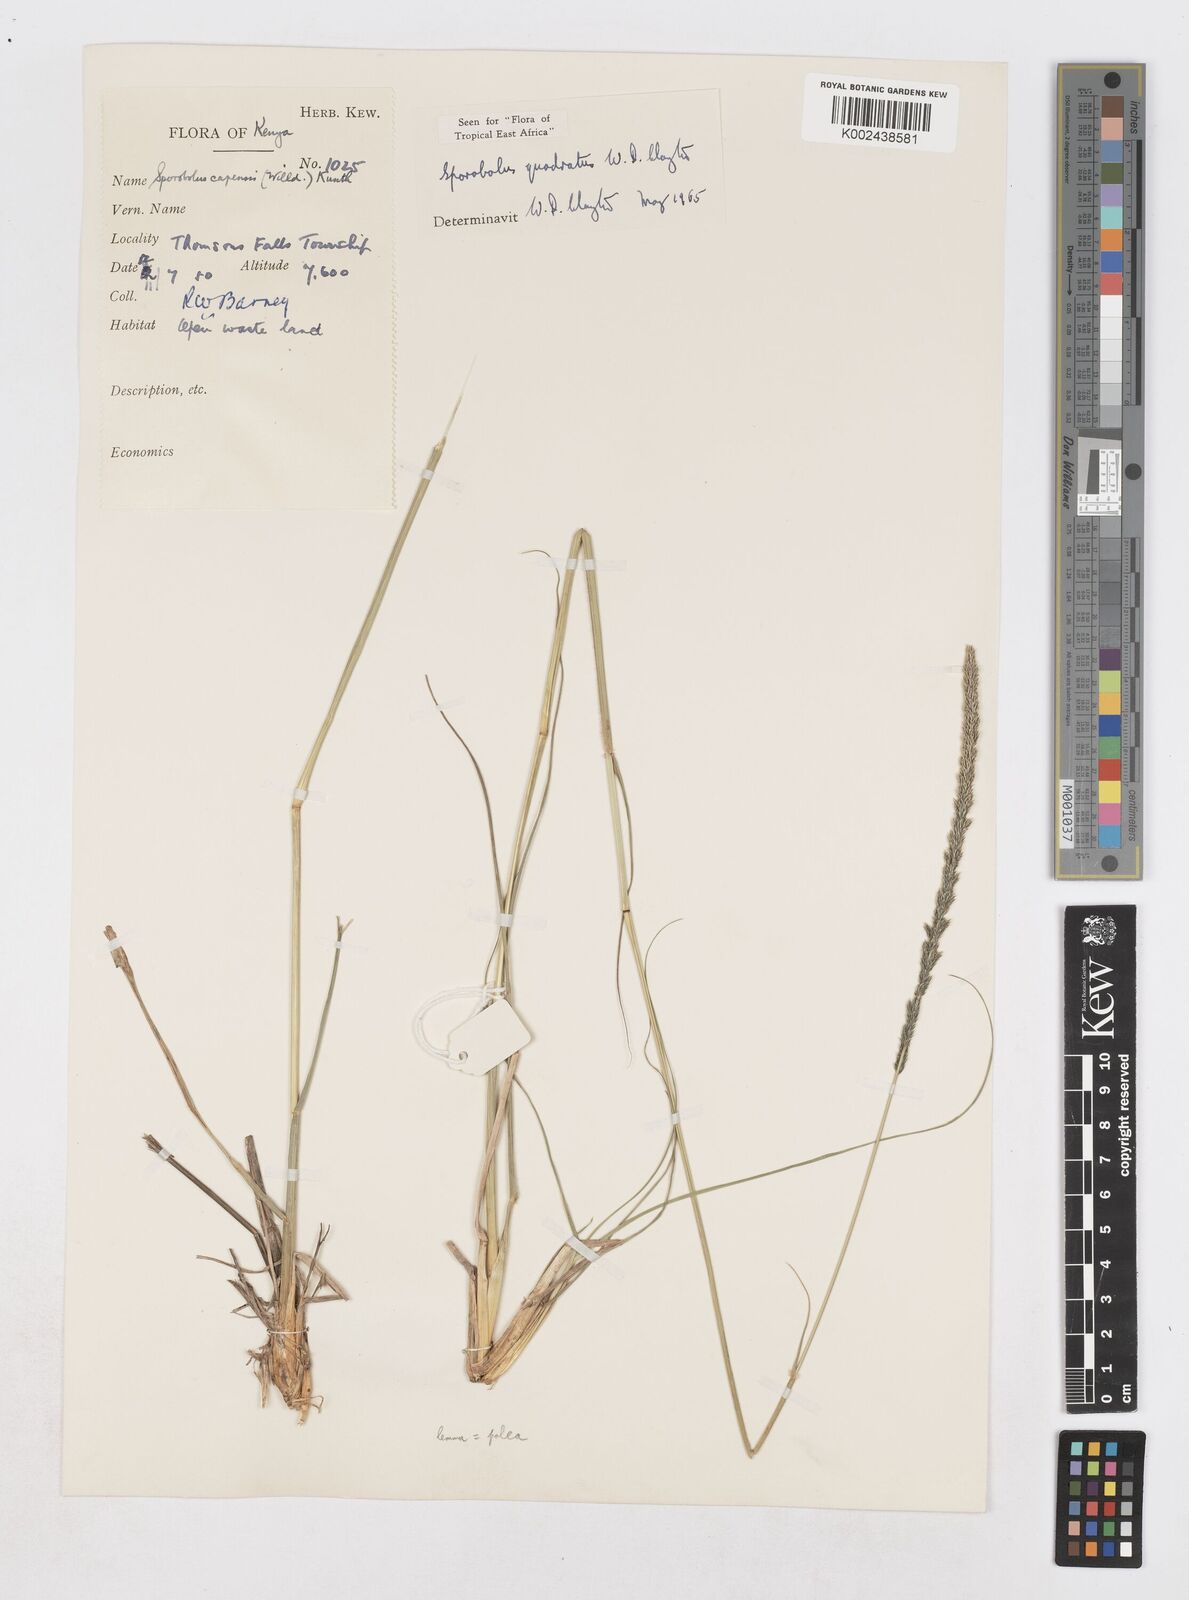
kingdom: Plantae
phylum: Tracheophyta
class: Liliopsida
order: Poales
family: Poaceae
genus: Sporobolus
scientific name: Sporobolus quadratus
